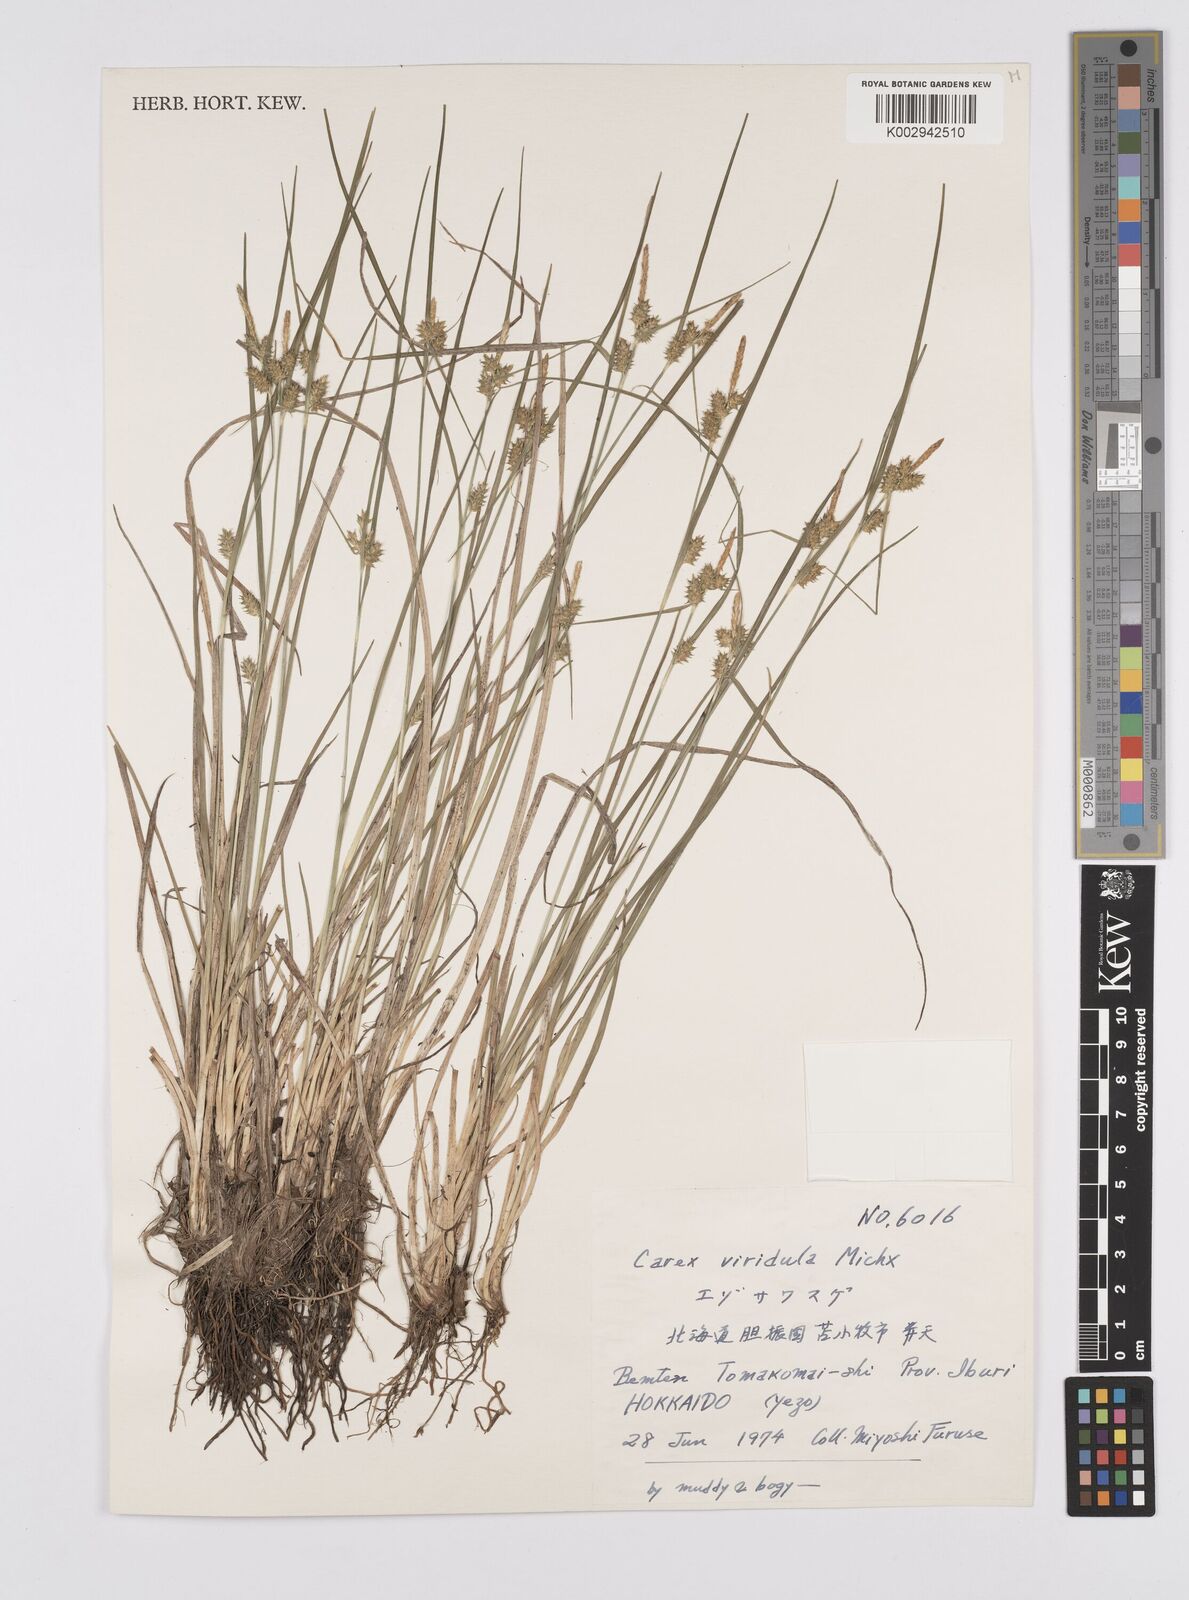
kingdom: Plantae
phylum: Tracheophyta
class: Liliopsida
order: Poales
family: Cyperaceae
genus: Carex
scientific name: Carex oederi
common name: Common & small-fruited yellow-sedge
